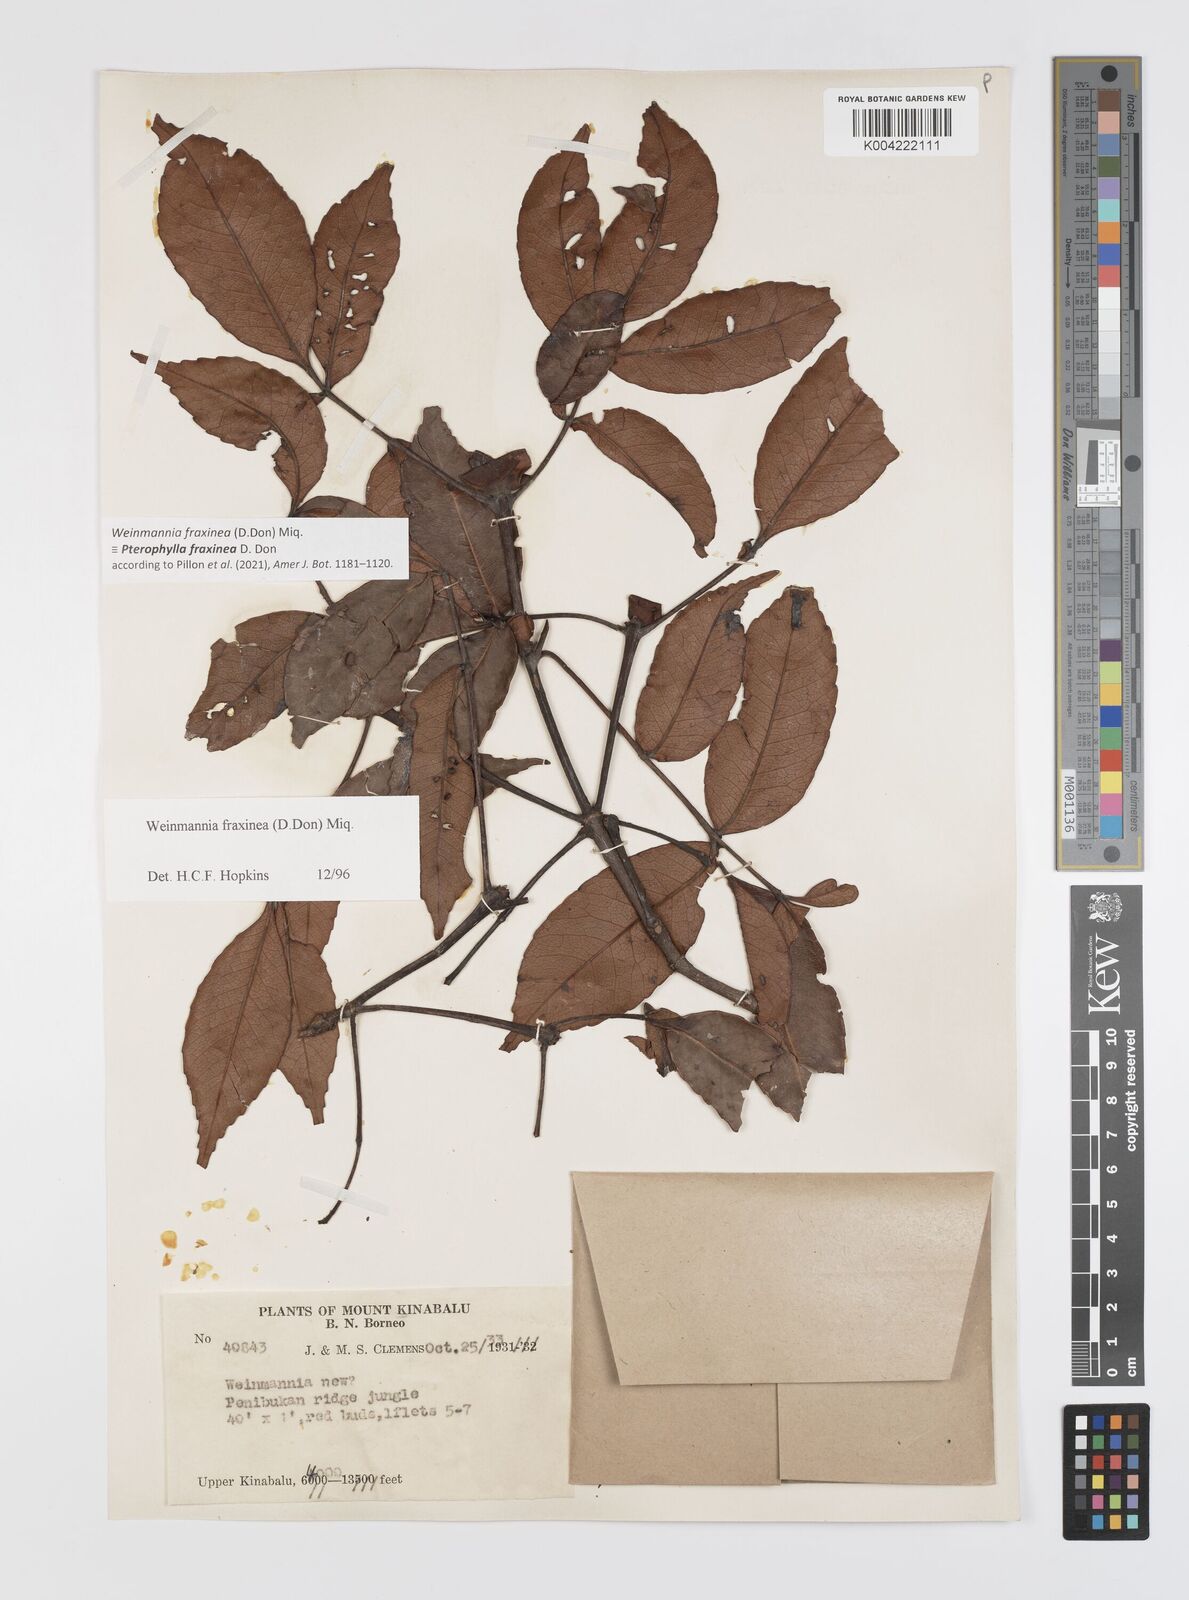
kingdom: Plantae
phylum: Tracheophyta
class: Magnoliopsida
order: Oxalidales
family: Cunoniaceae
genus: Pterophylla
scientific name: Pterophylla fraxinea
